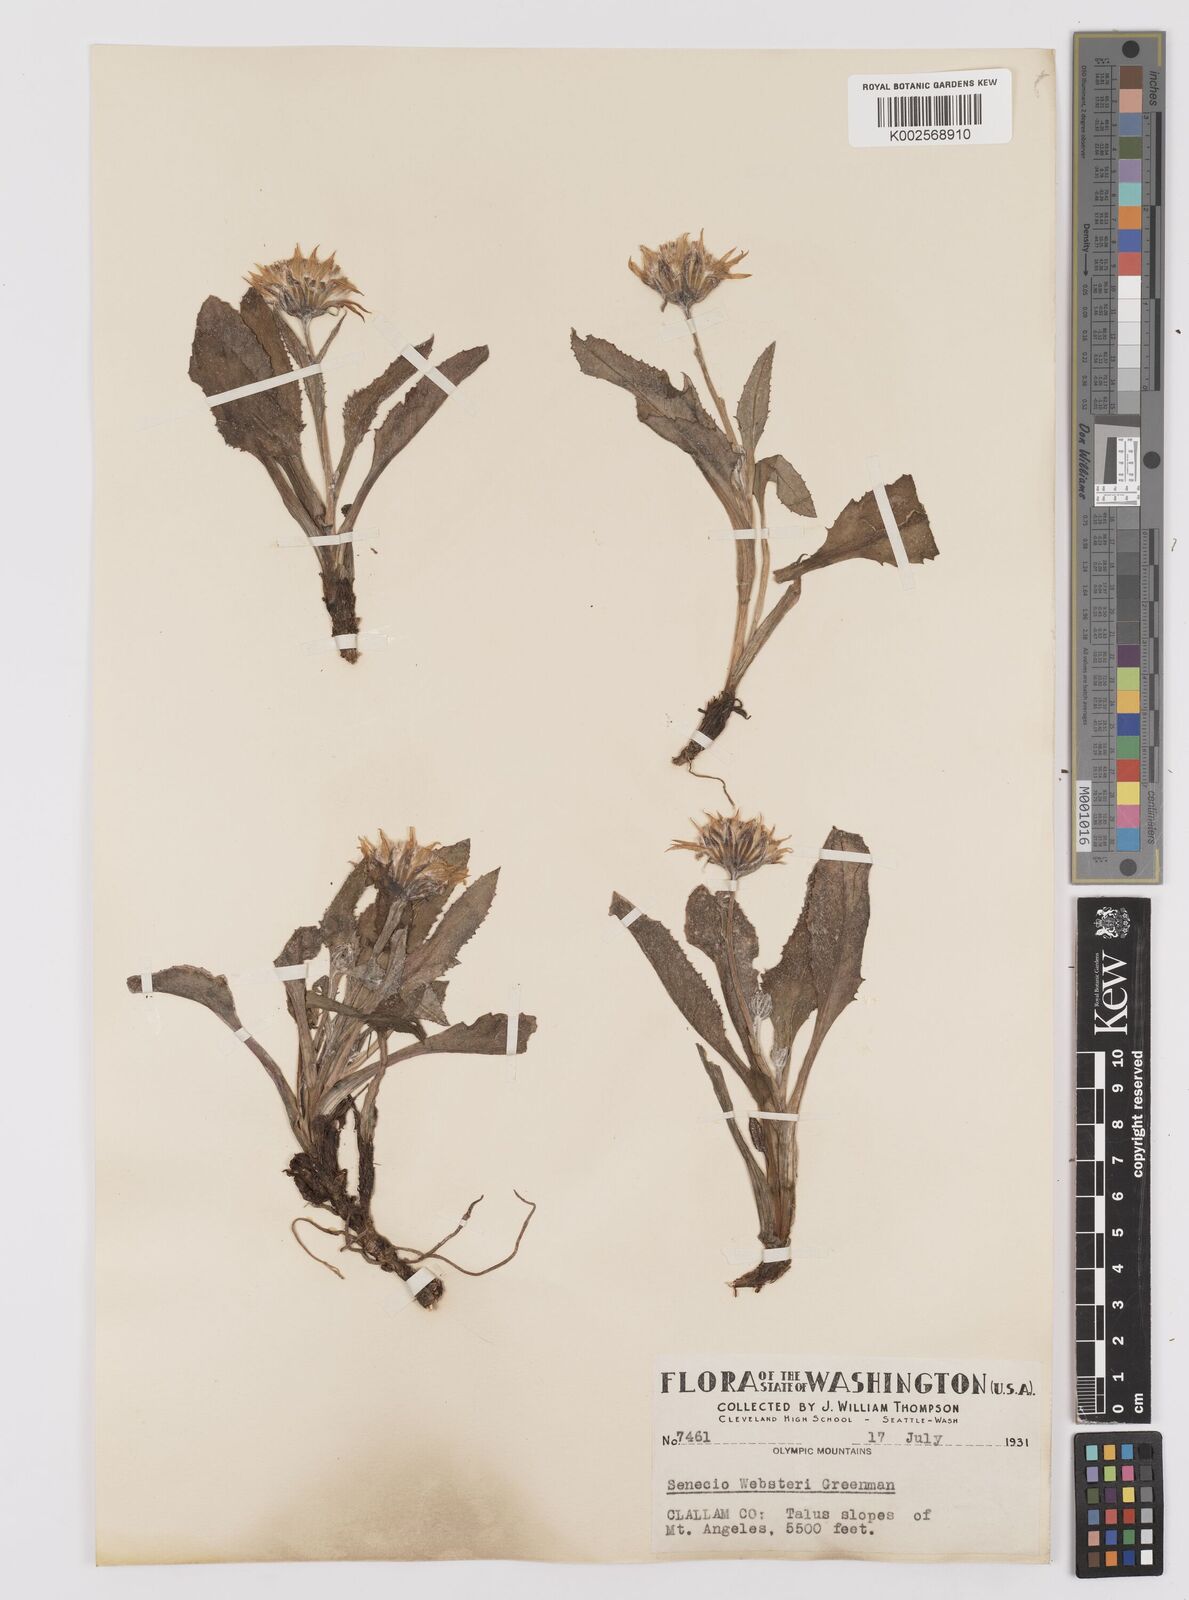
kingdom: Plantae
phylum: Tracheophyta
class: Magnoliopsida
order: Asterales
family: Asteraceae
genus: Senecio
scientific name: Senecio neowebsteri
